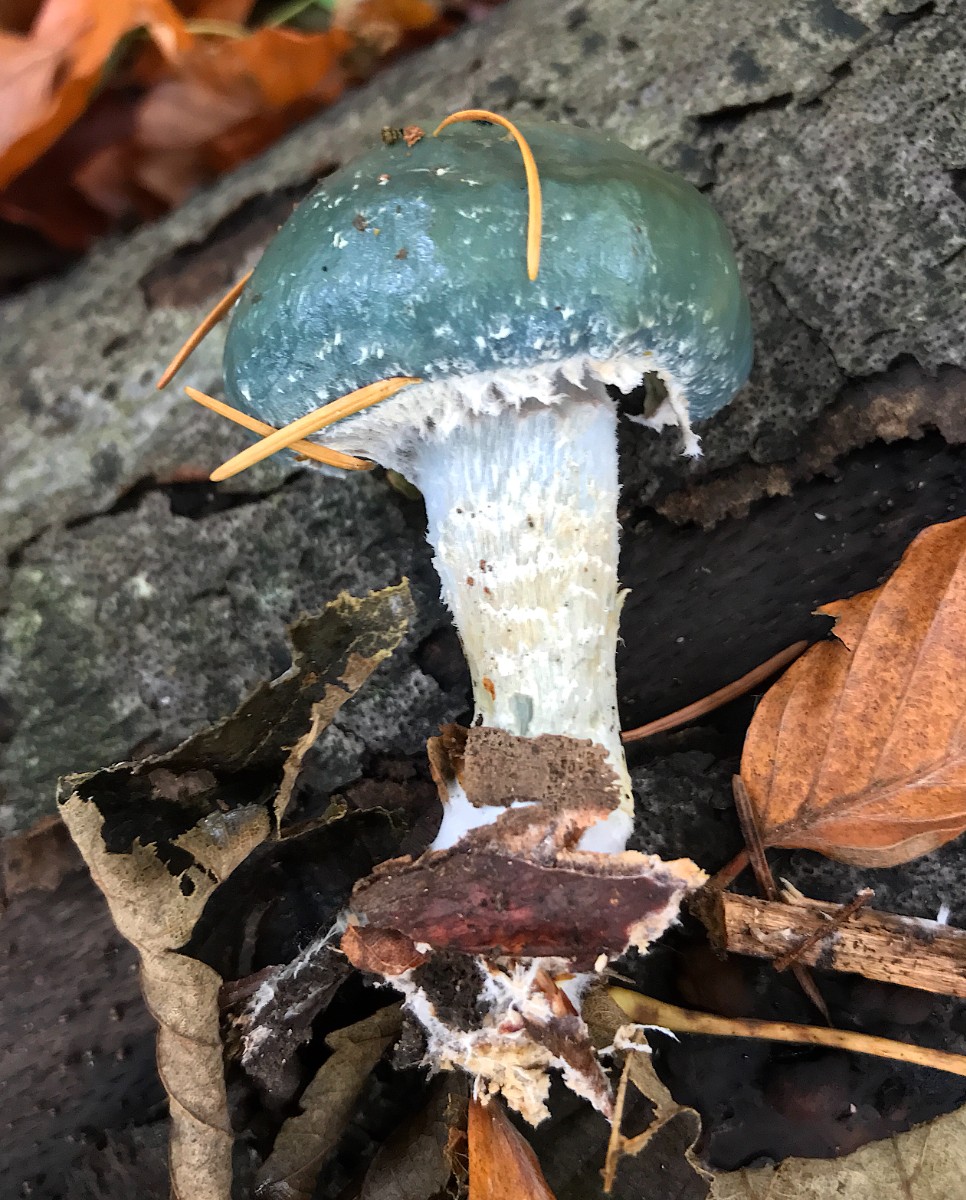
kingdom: Fungi
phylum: Basidiomycota
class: Agaricomycetes
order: Agaricales
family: Strophariaceae
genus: Stropharia
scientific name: Stropharia aeruginosa
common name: spanskgrøn bredblad
